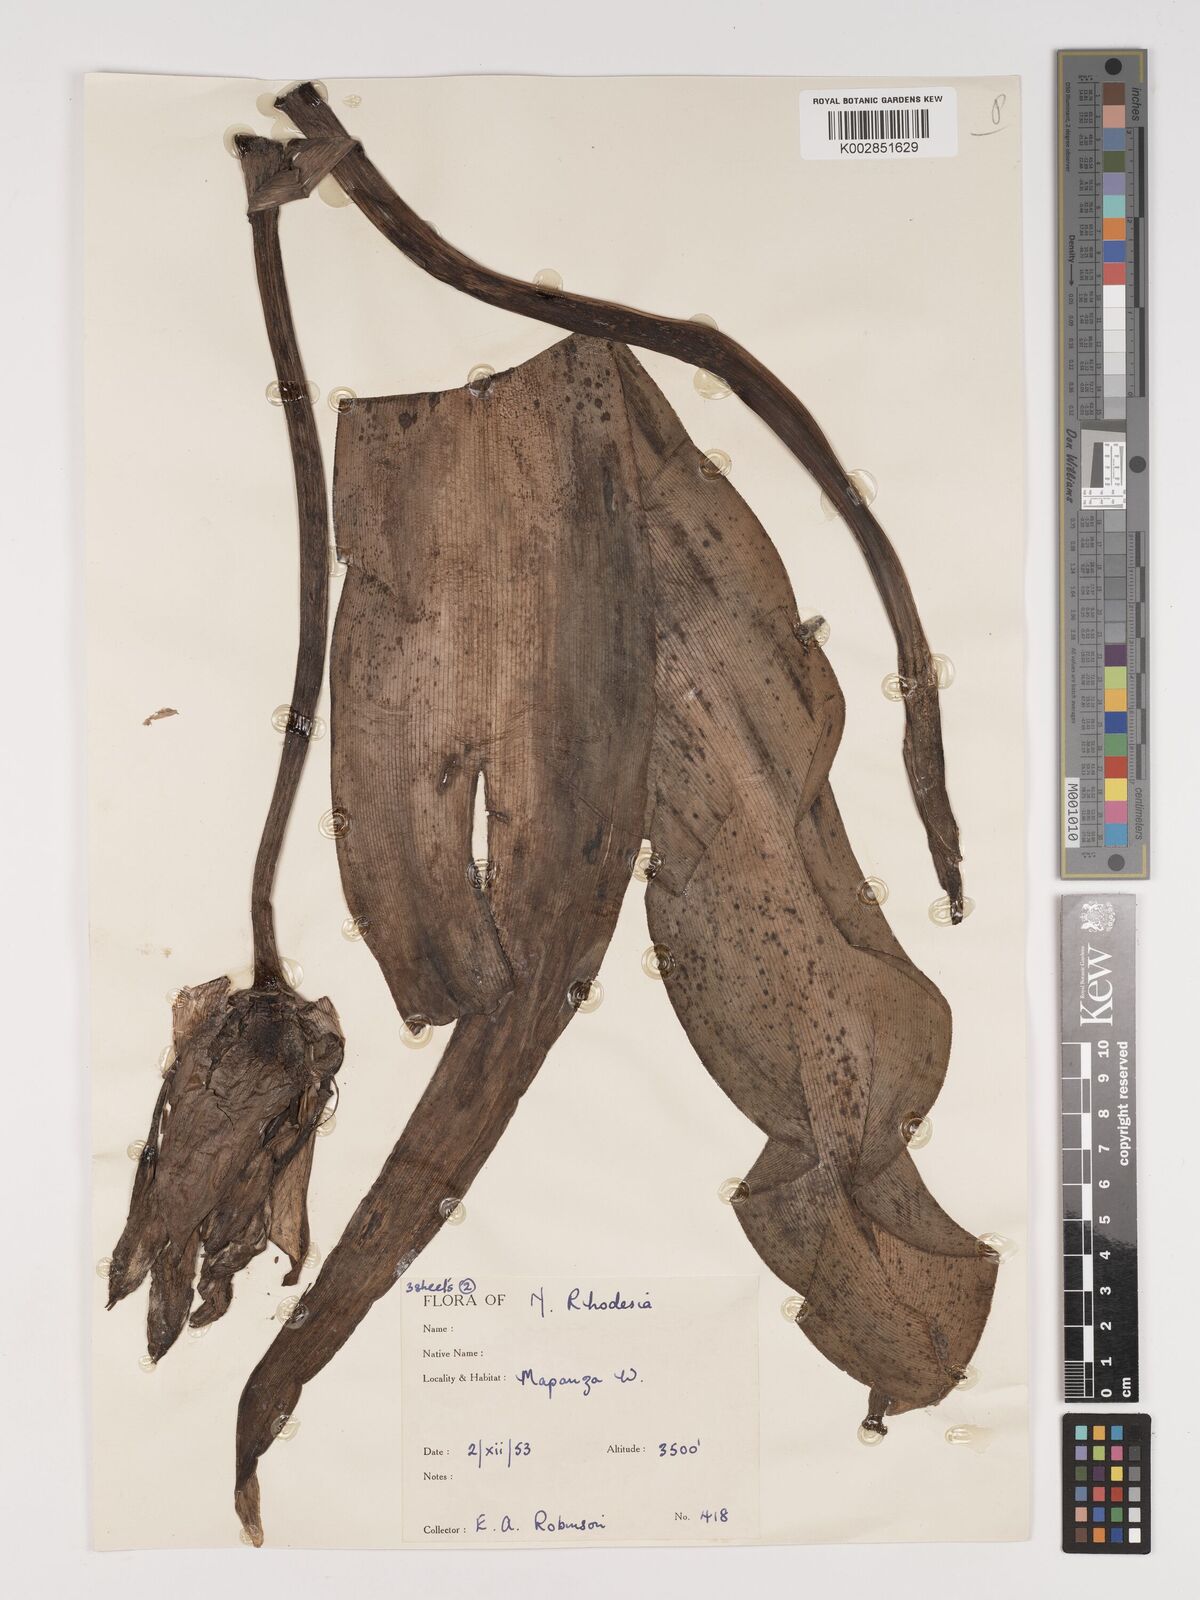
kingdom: Plantae
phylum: Tracheophyta
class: Liliopsida
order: Asparagales
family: Amaryllidaceae
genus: Crinum
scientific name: Crinum macowanii
